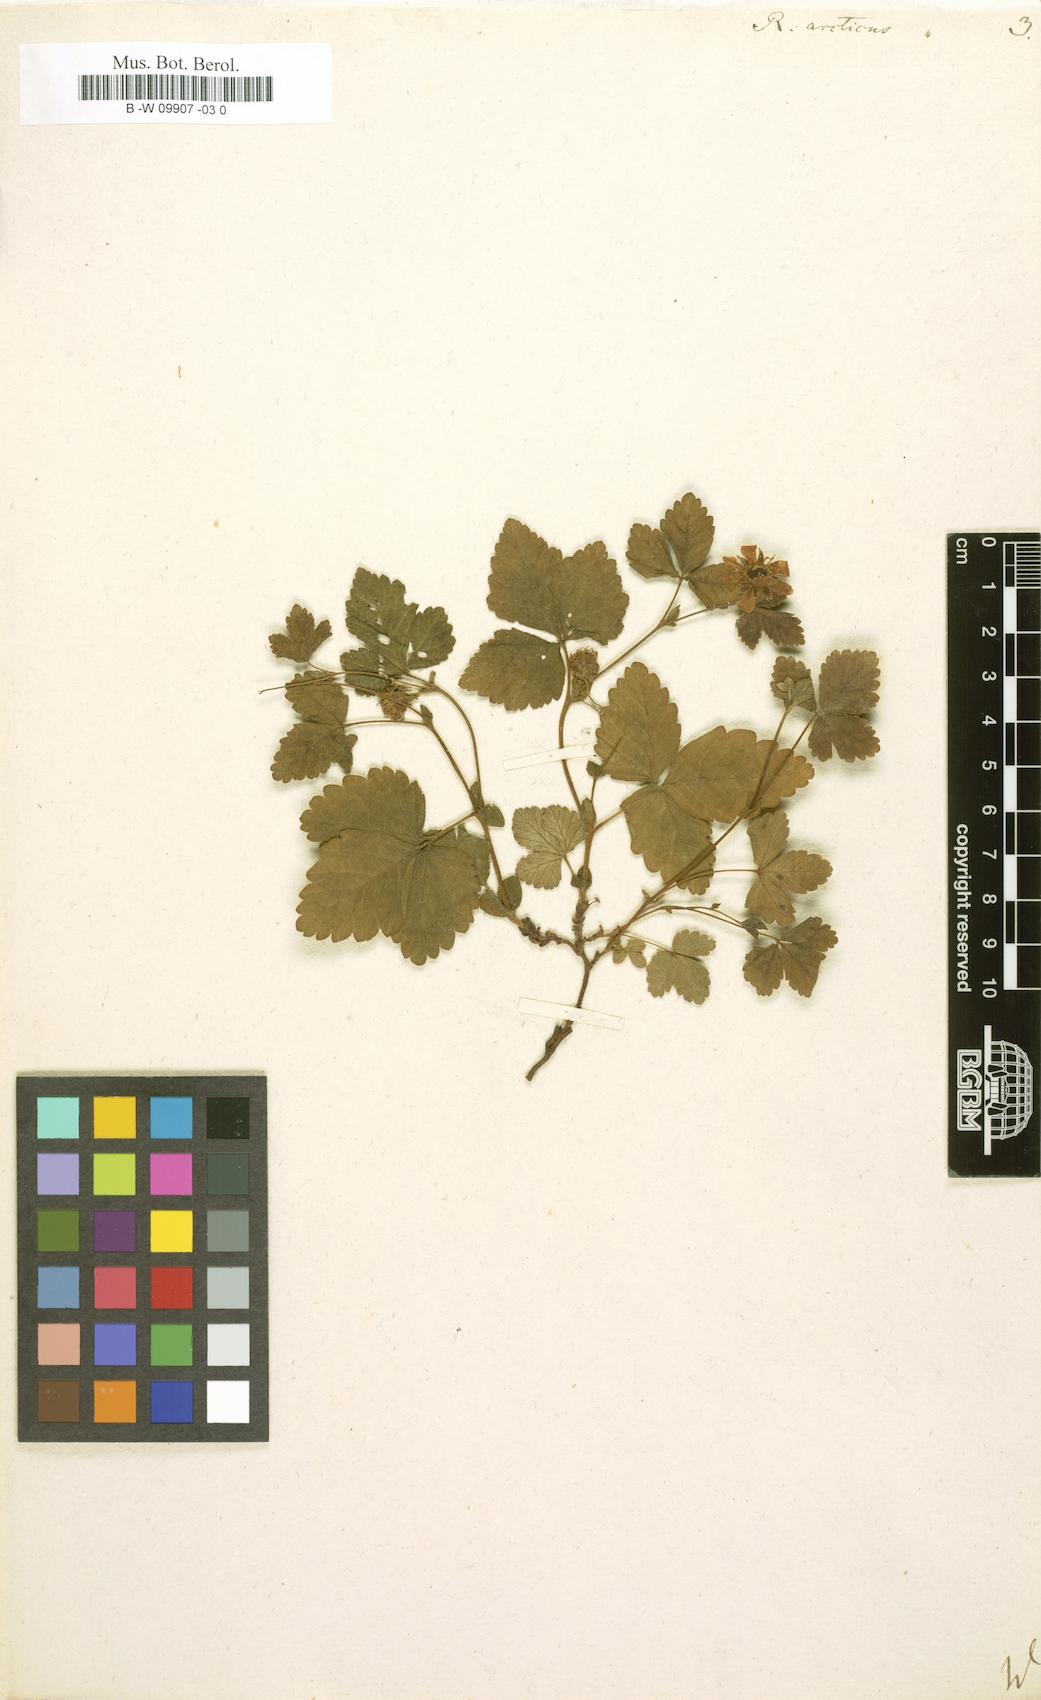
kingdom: Plantae
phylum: Tracheophyta
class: Magnoliopsida
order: Rosales
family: Rosaceae
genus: Rubus
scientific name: Rubus arcticus
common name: Arctic bramble
